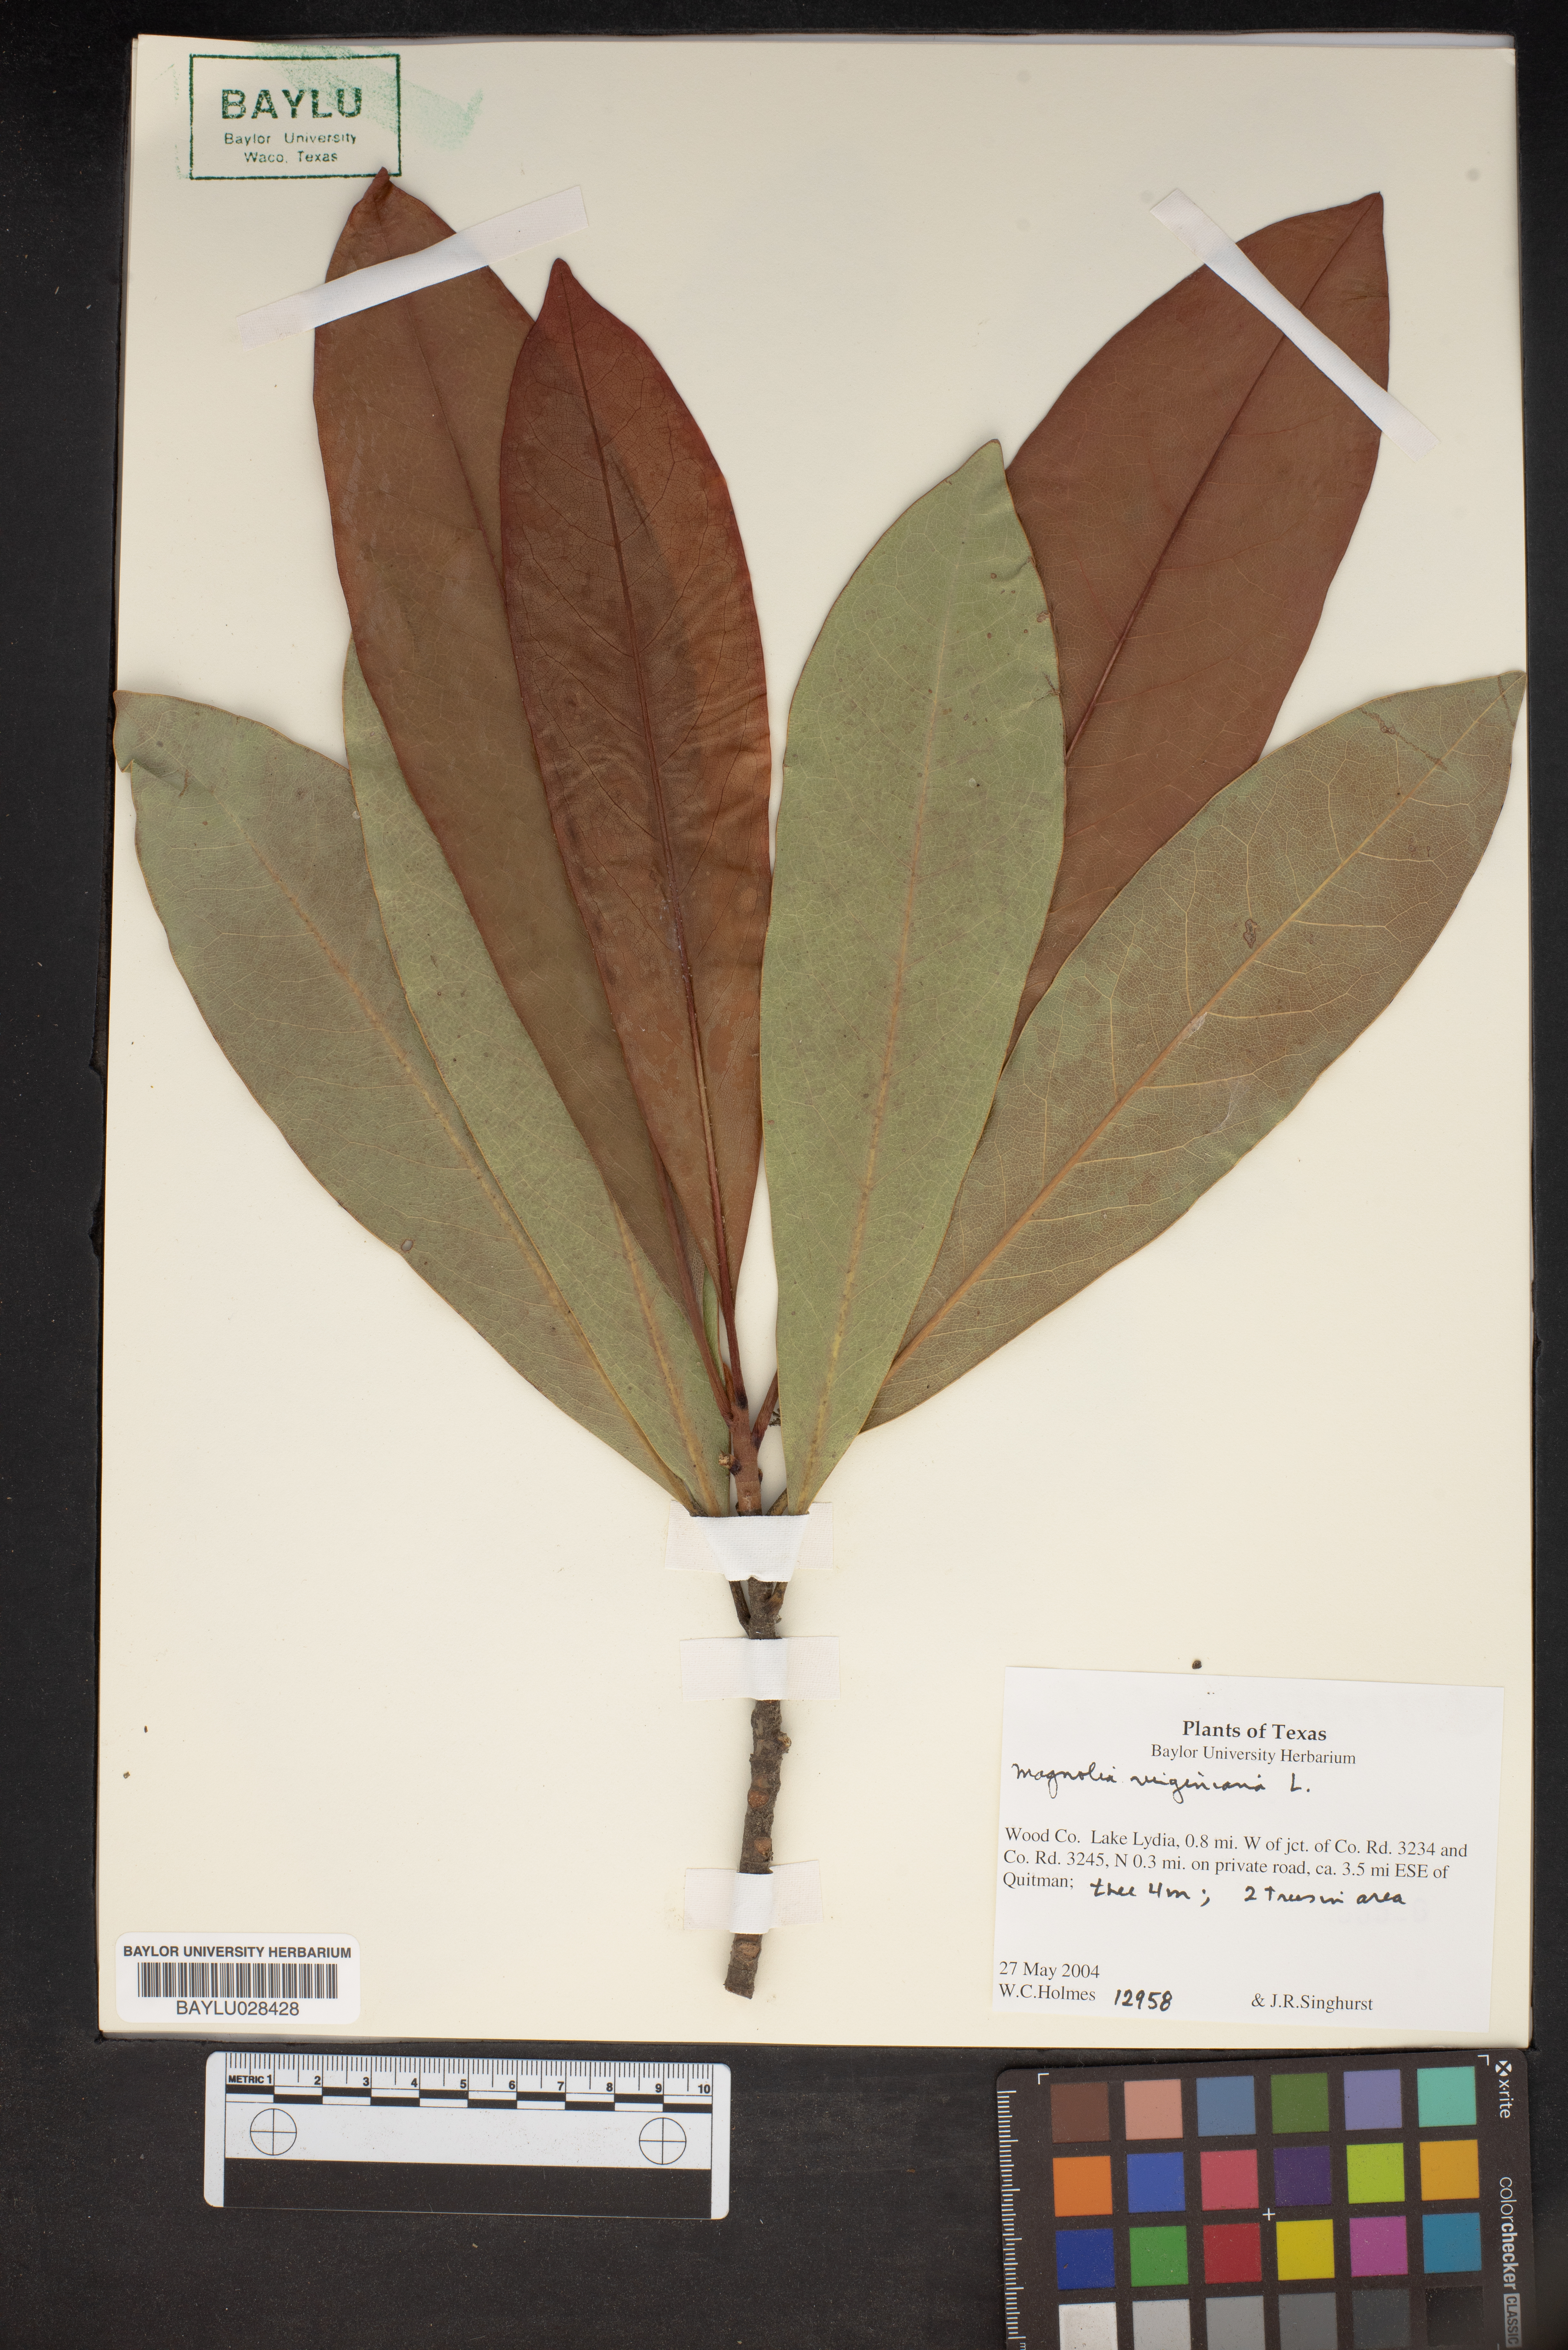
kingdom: Plantae
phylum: Tracheophyta
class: Magnoliopsida
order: Magnoliales
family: Magnoliaceae
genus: Magnolia
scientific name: Magnolia virginiana
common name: Swamp bay
